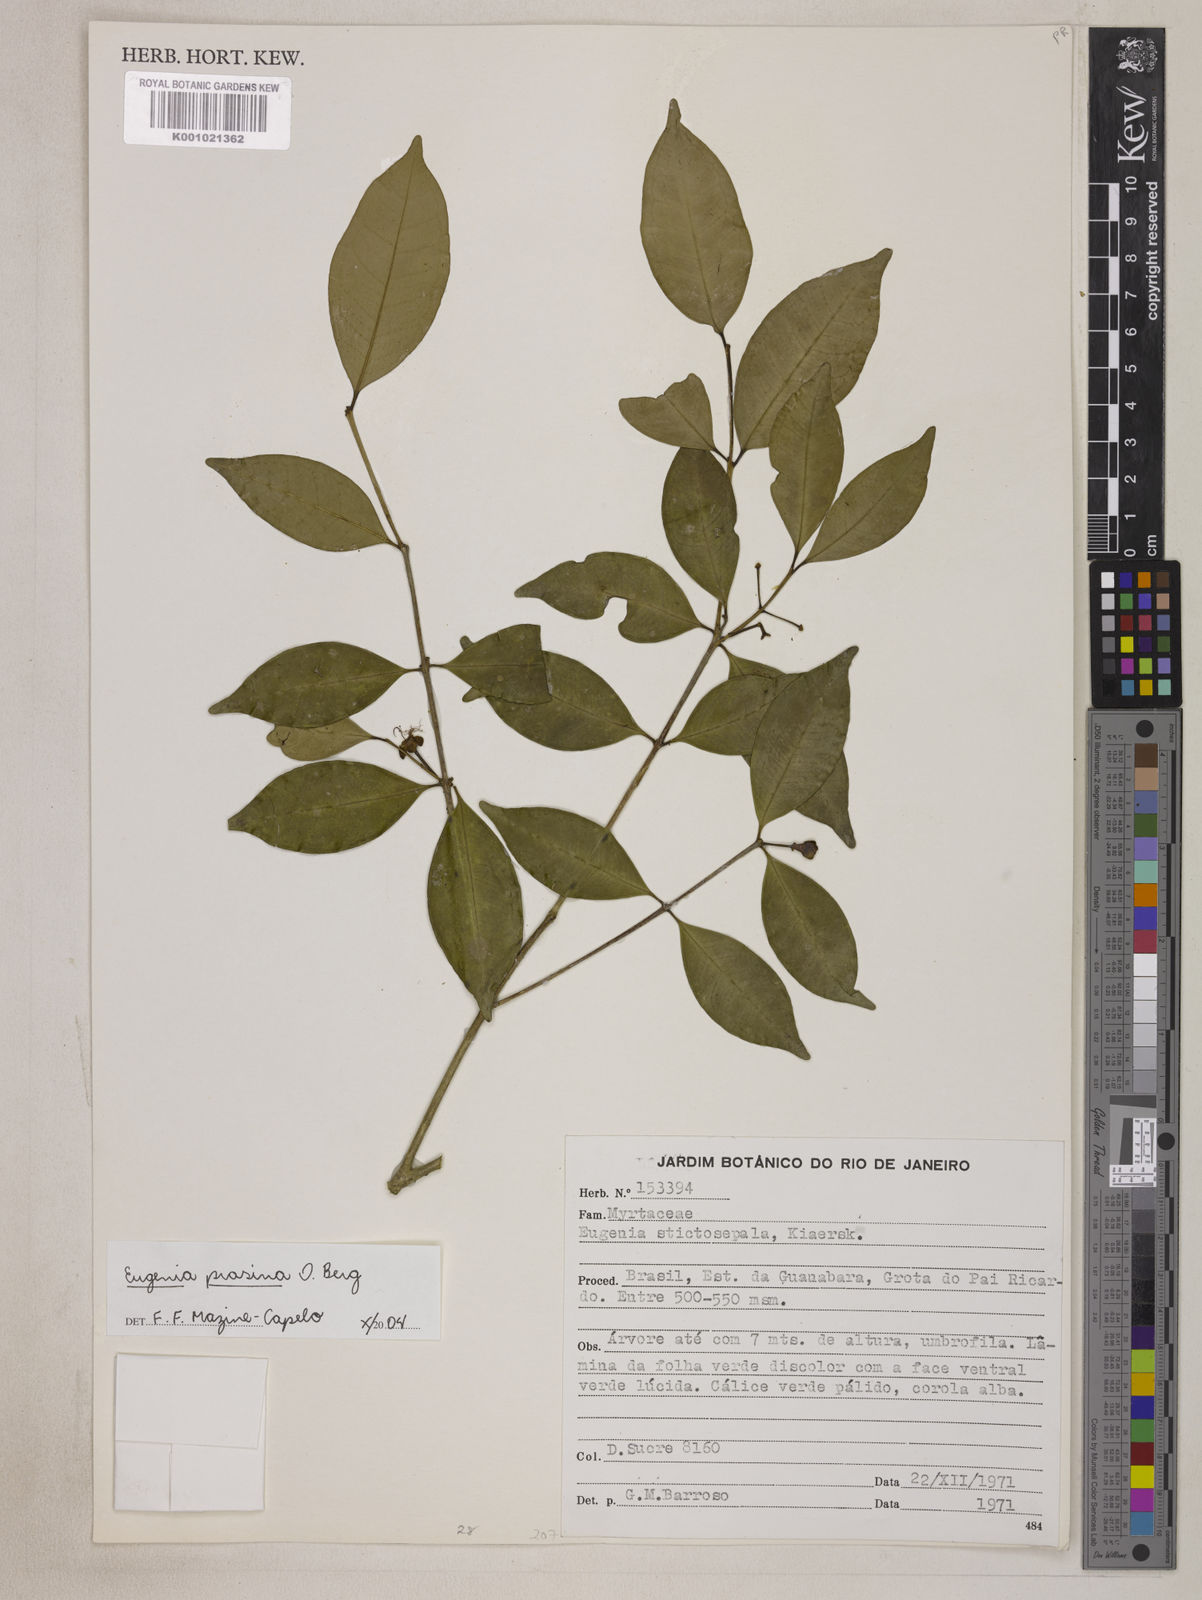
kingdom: Plantae
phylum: Tracheophyta
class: Magnoliopsida
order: Myrtales
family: Myrtaceae
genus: Eugenia
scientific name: Eugenia prasina
